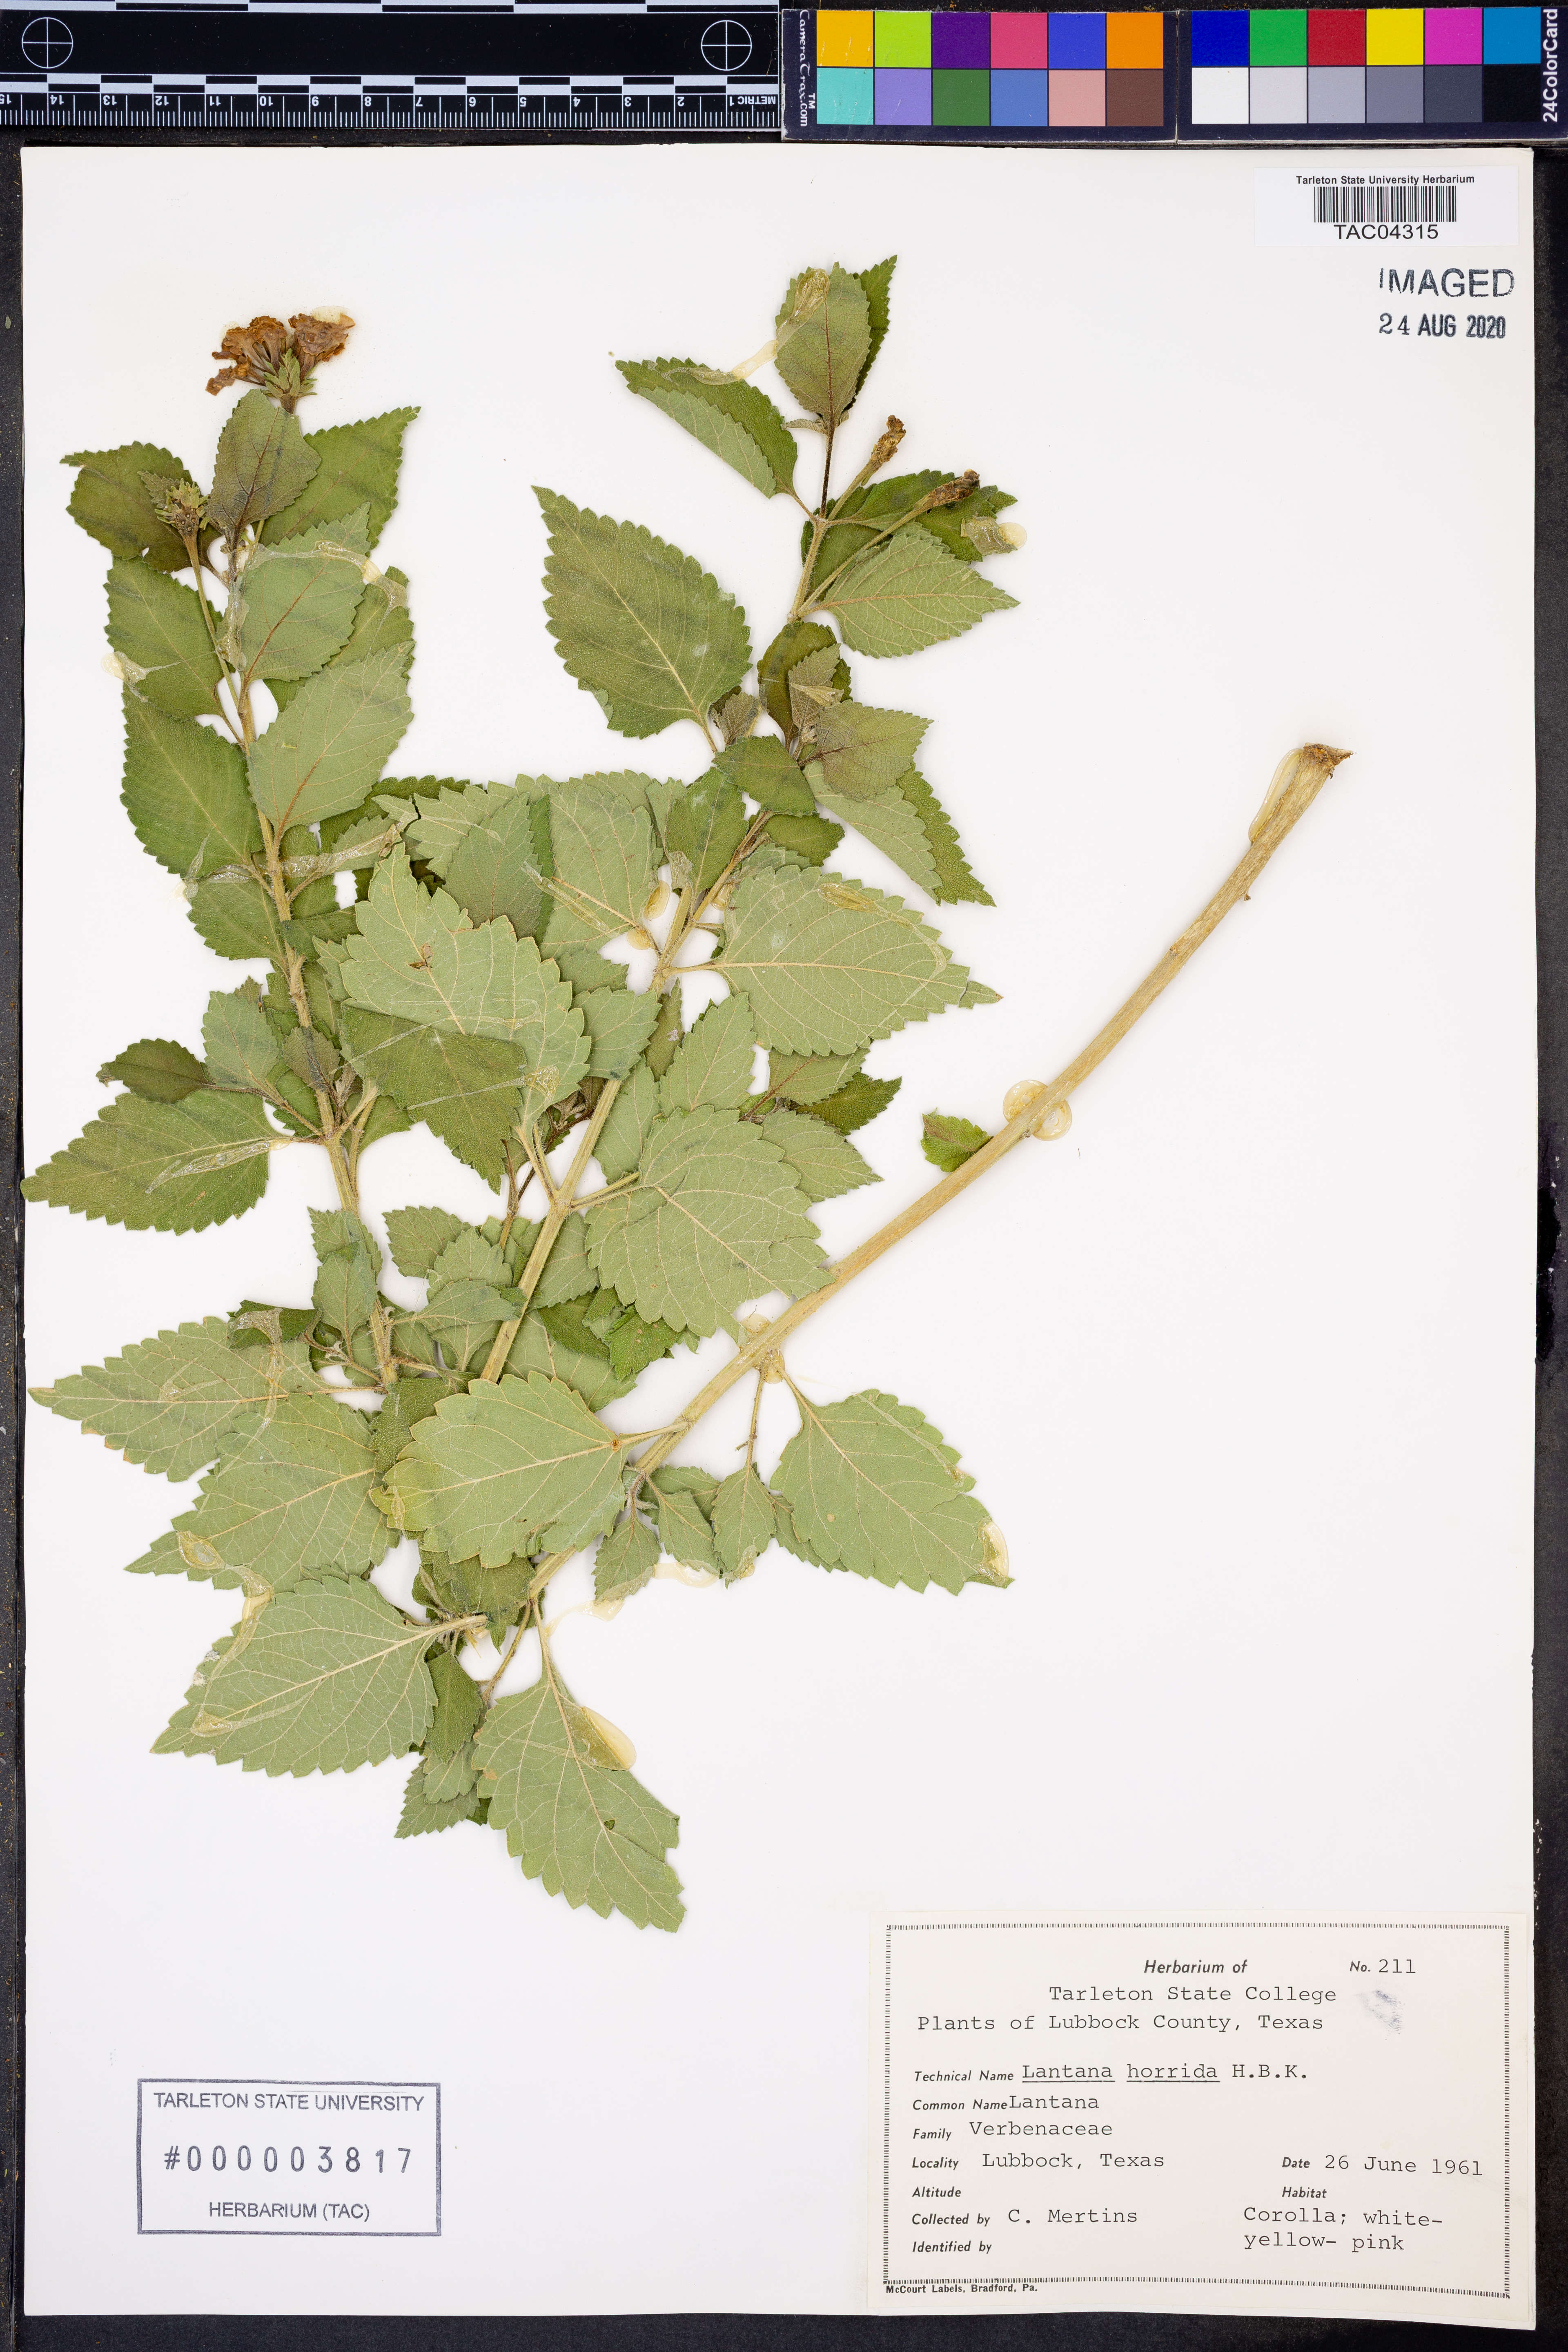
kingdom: Plantae
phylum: Tracheophyta
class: Magnoliopsida
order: Lamiales
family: Verbenaceae
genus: Lantana
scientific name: Lantana horrida
